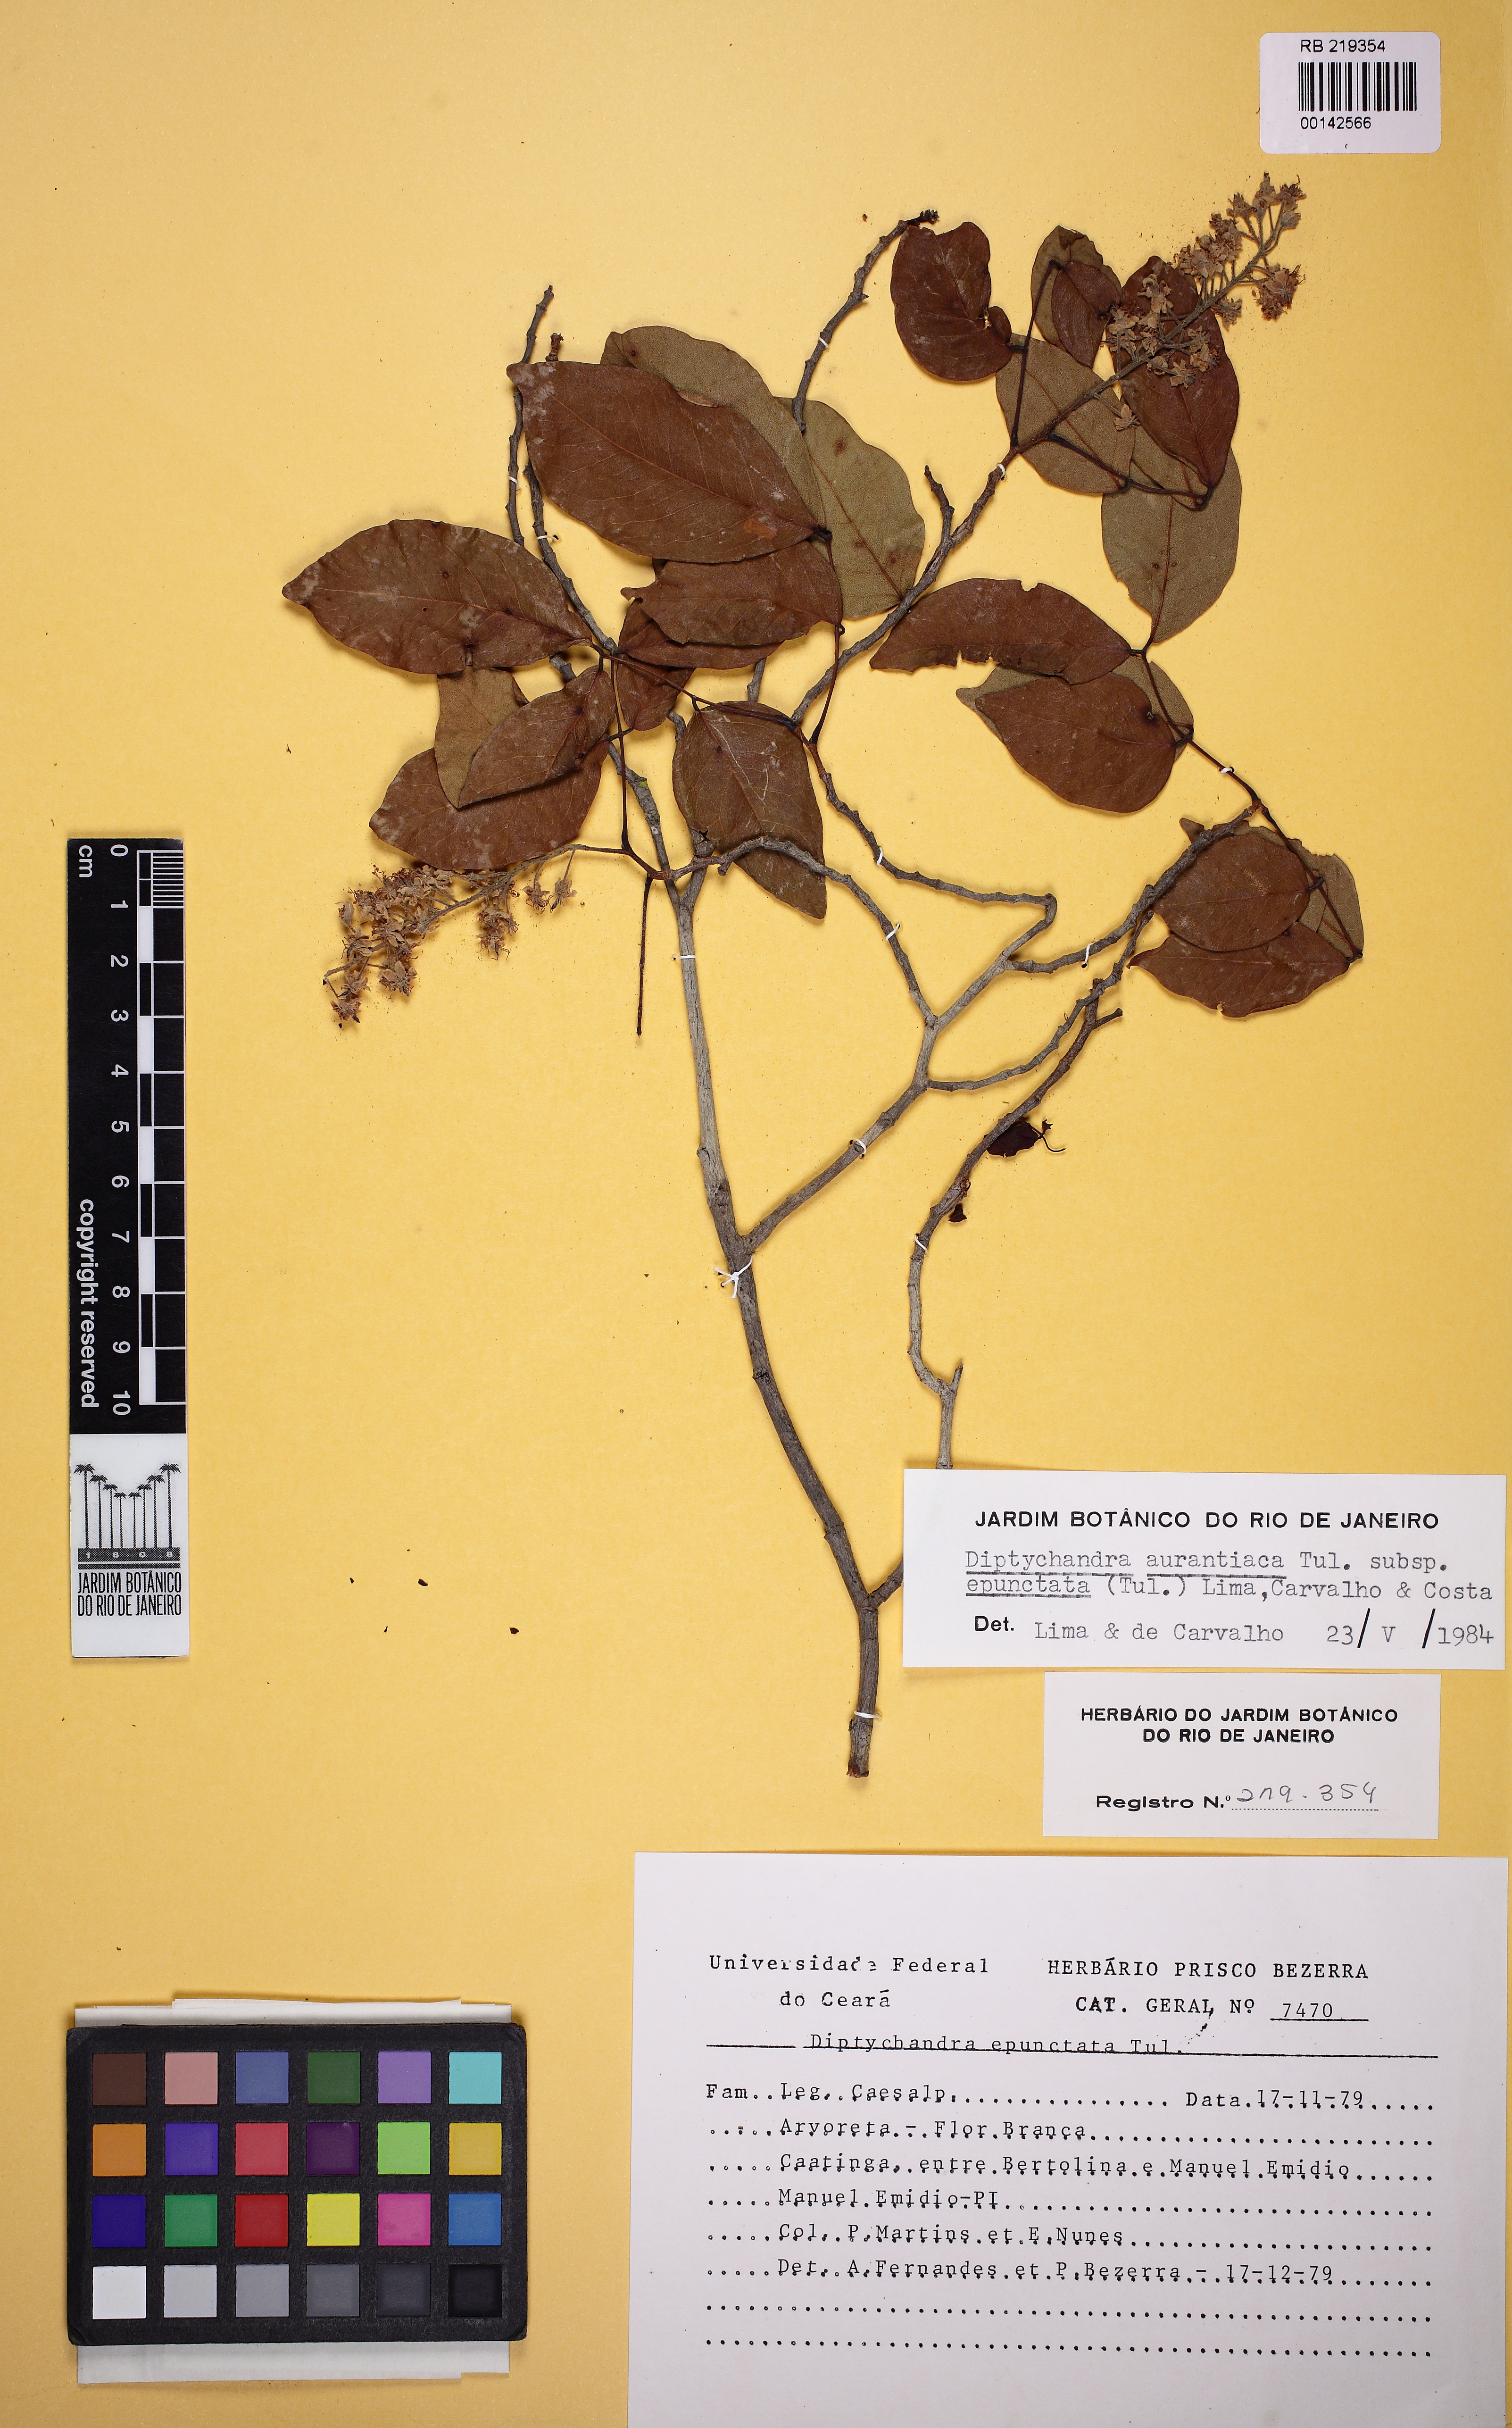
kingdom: Plantae
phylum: Tracheophyta
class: Magnoliopsida
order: Fabales
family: Fabaceae
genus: Diptychandra
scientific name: Diptychandra aurantiaca
